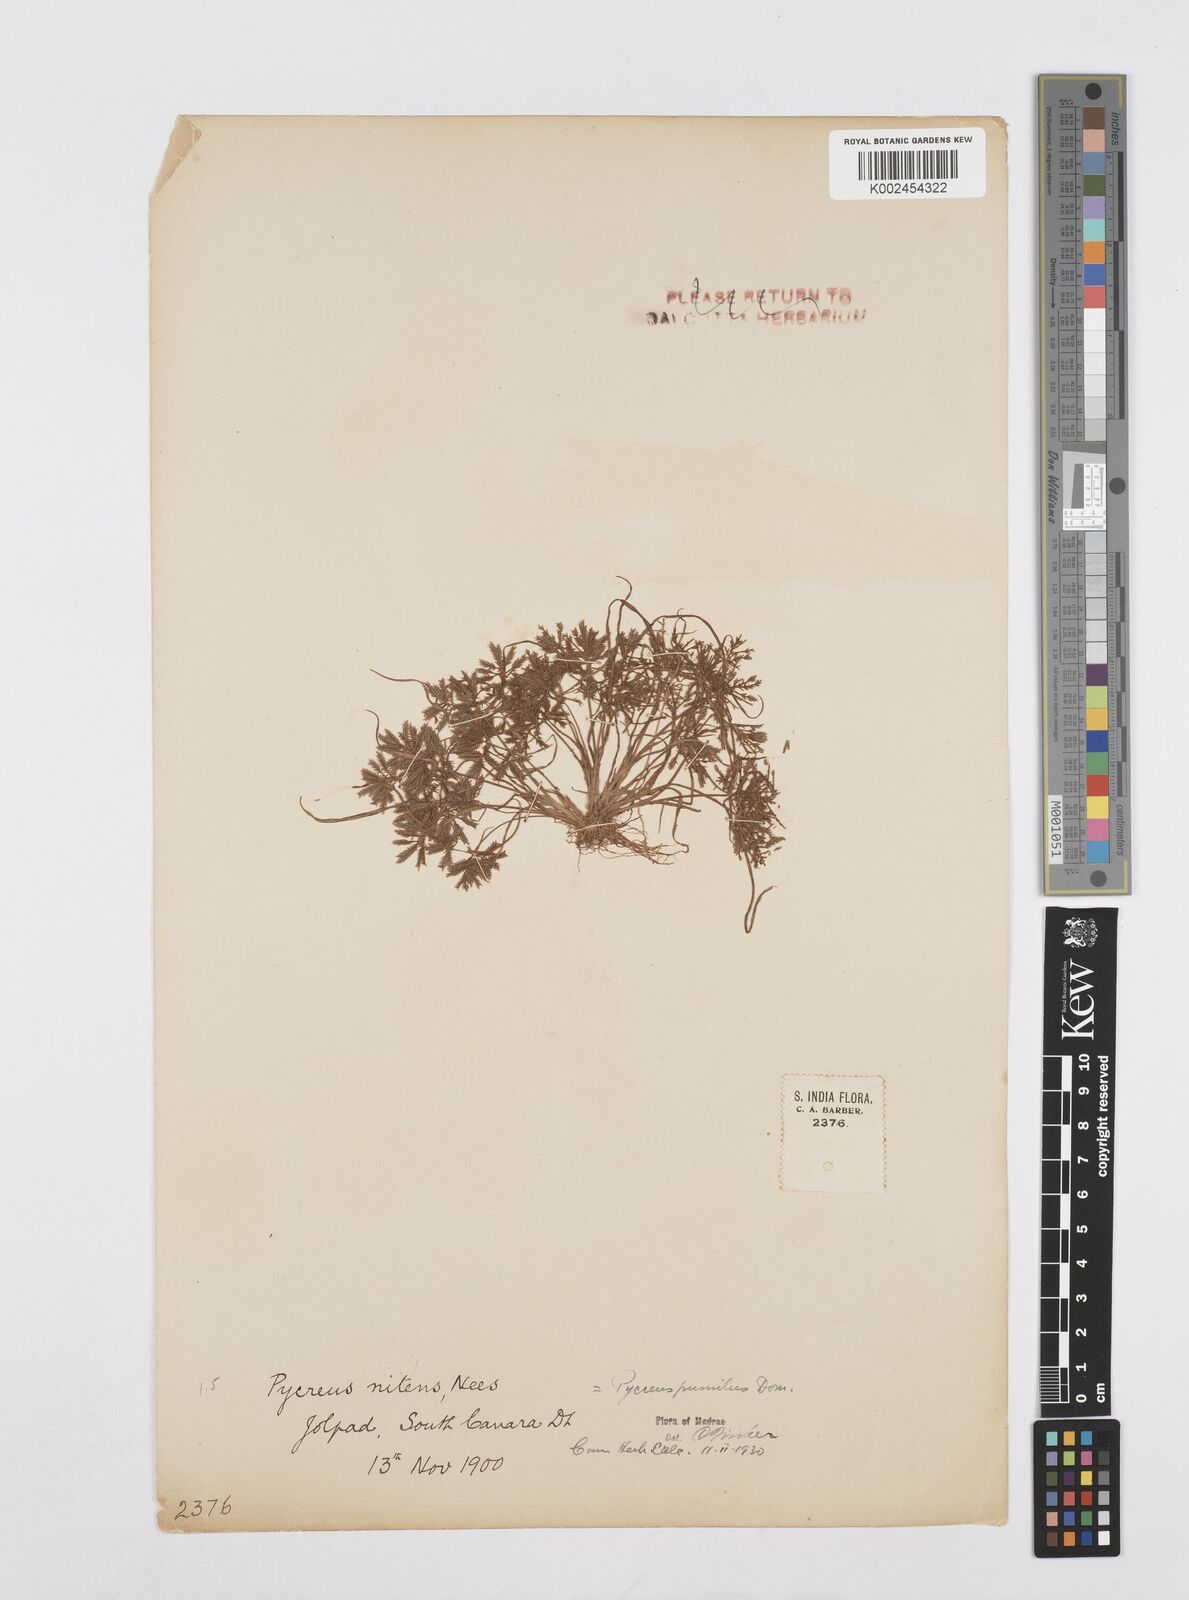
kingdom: Plantae
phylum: Tracheophyta
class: Liliopsida
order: Poales
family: Cyperaceae
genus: Cyperus
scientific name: Cyperus pumilus
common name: Low flatsedge
